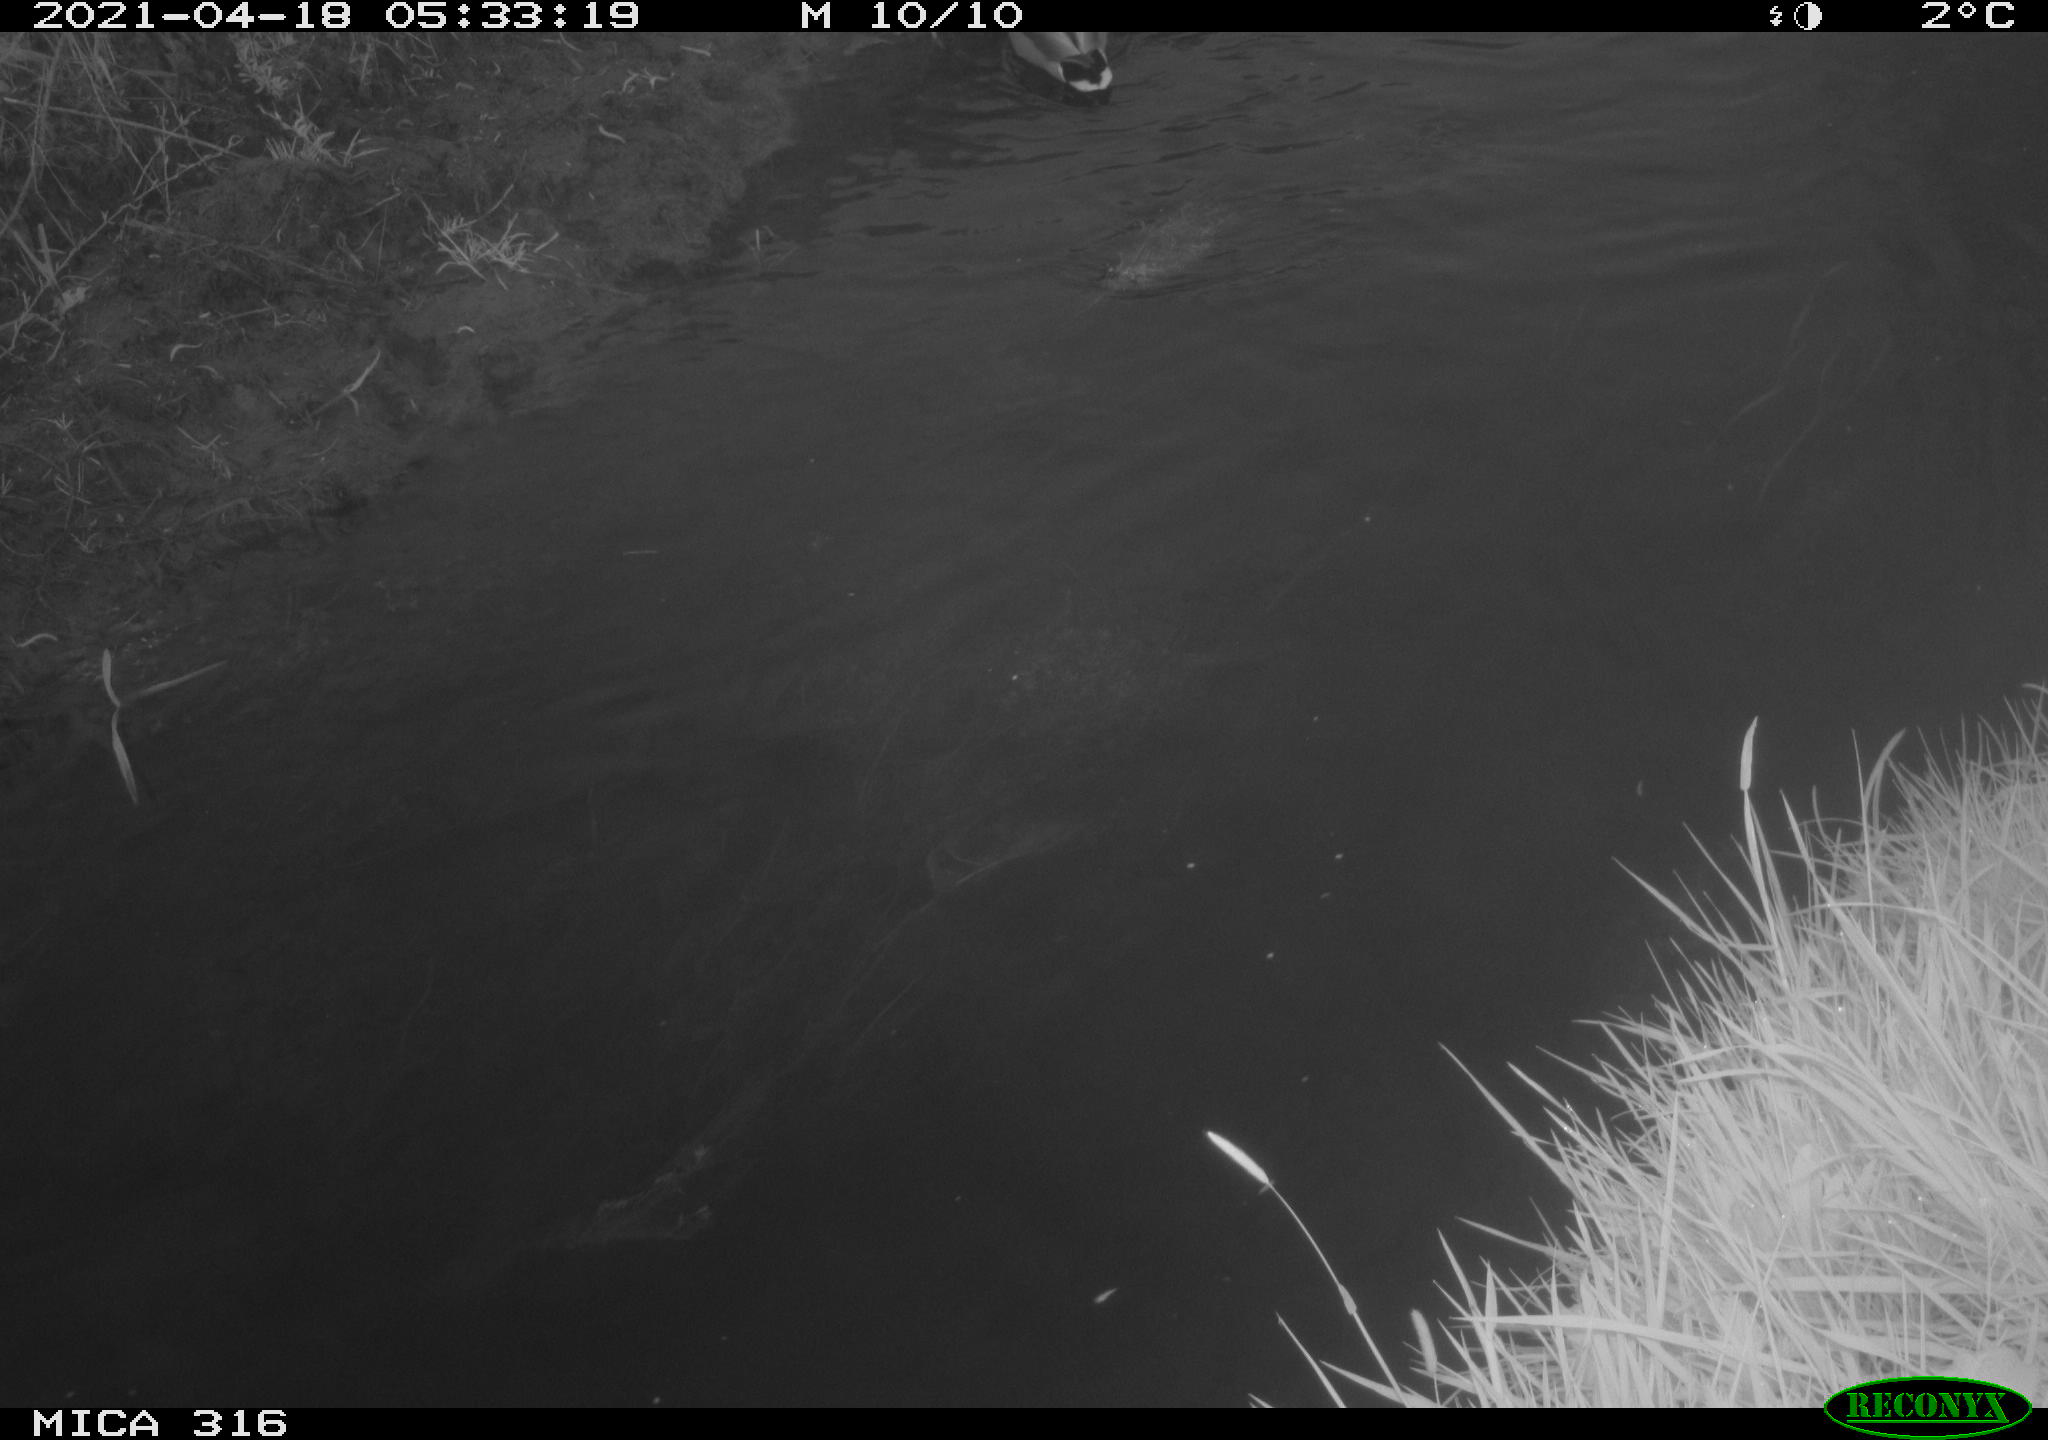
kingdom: Animalia
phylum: Chordata
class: Aves
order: Anseriformes
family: Anatidae
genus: Anas
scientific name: Anas platyrhynchos
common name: Mallard
